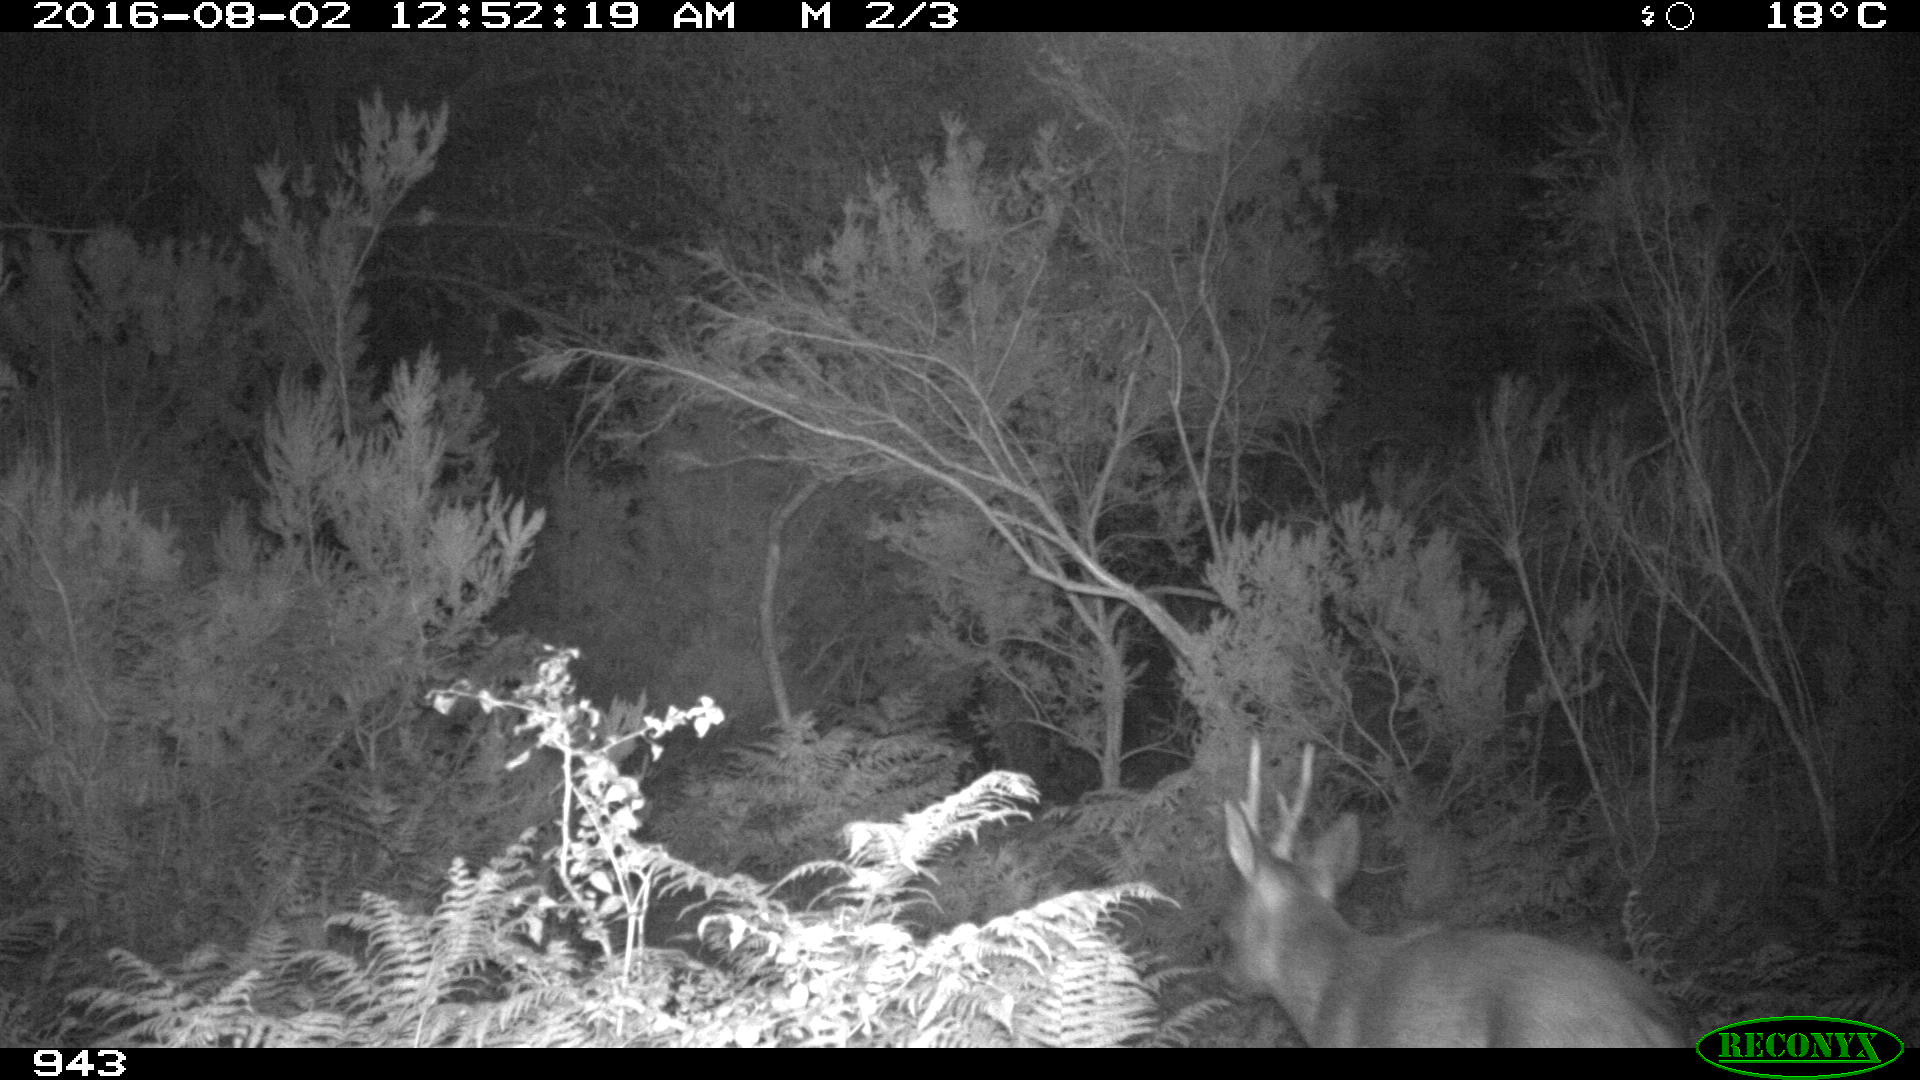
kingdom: Animalia
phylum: Chordata
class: Mammalia
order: Artiodactyla
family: Cervidae
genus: Capreolus
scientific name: Capreolus capreolus
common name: Western roe deer
